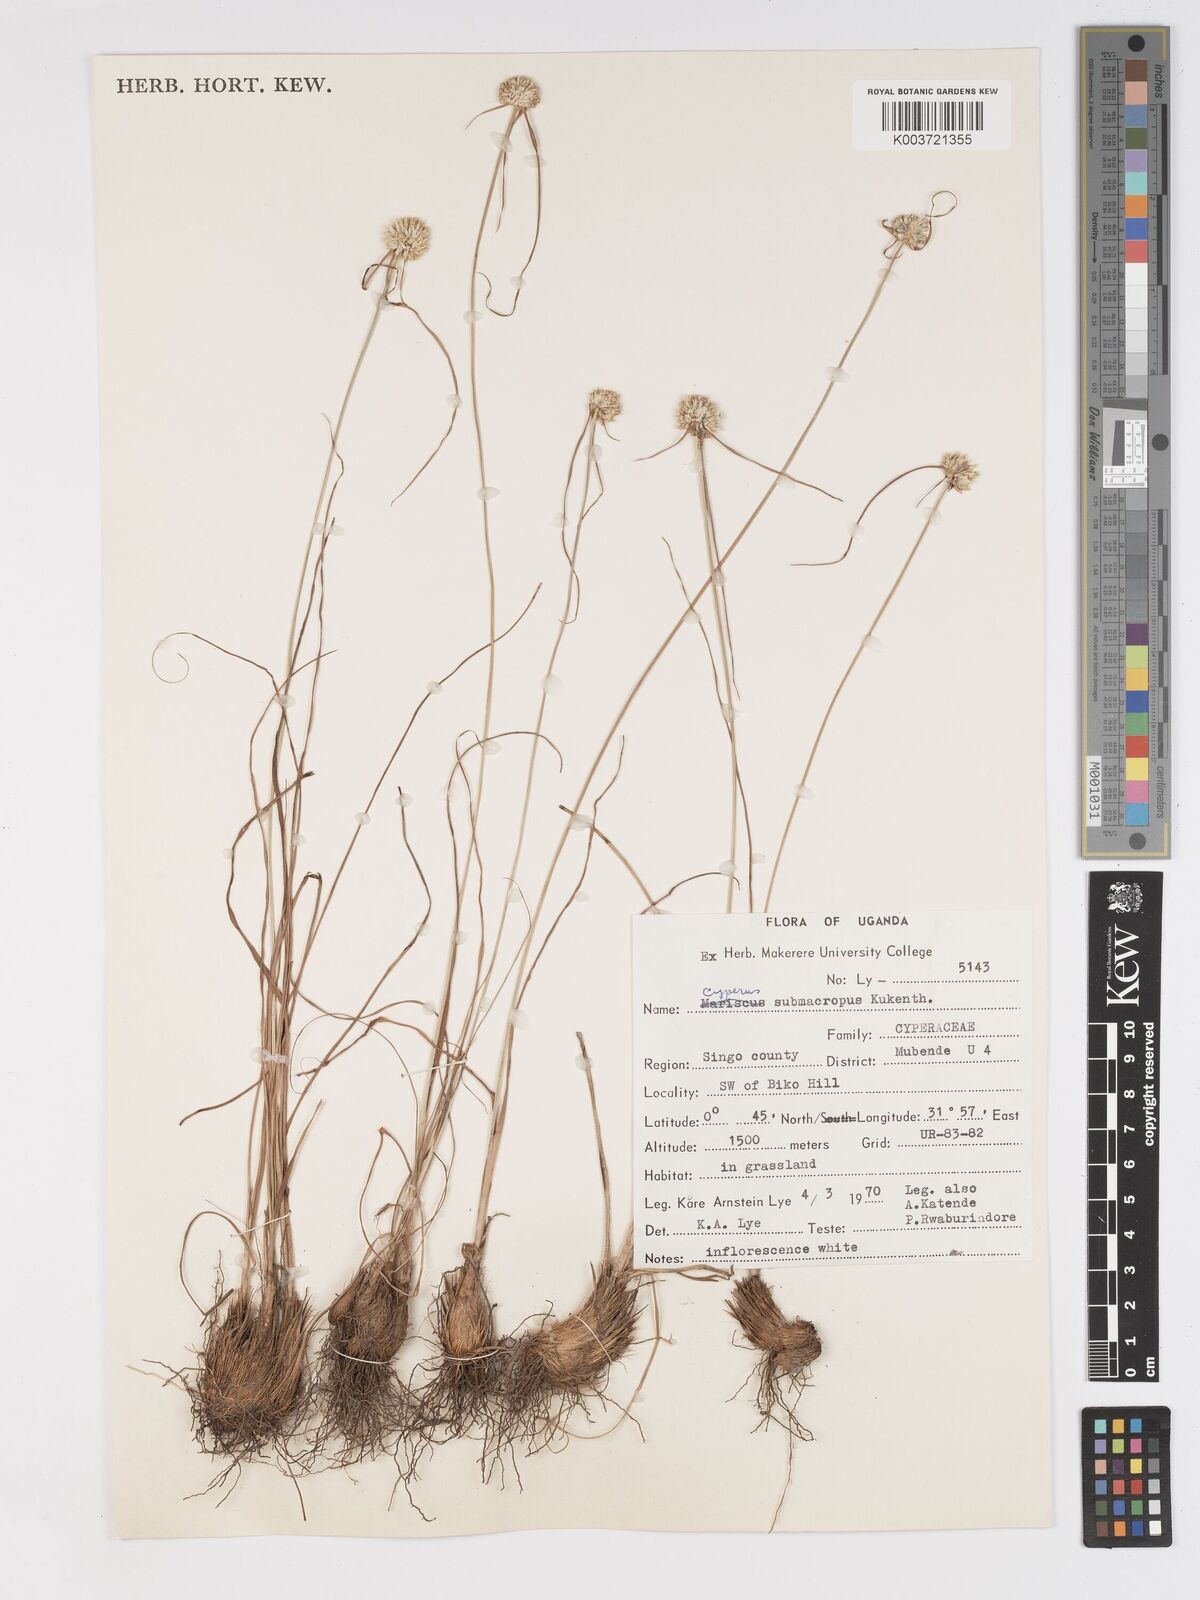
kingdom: Plantae
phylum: Tracheophyta
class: Liliopsida
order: Poales
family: Cyperaceae
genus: Cyperus
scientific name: Cyperus mollipes
